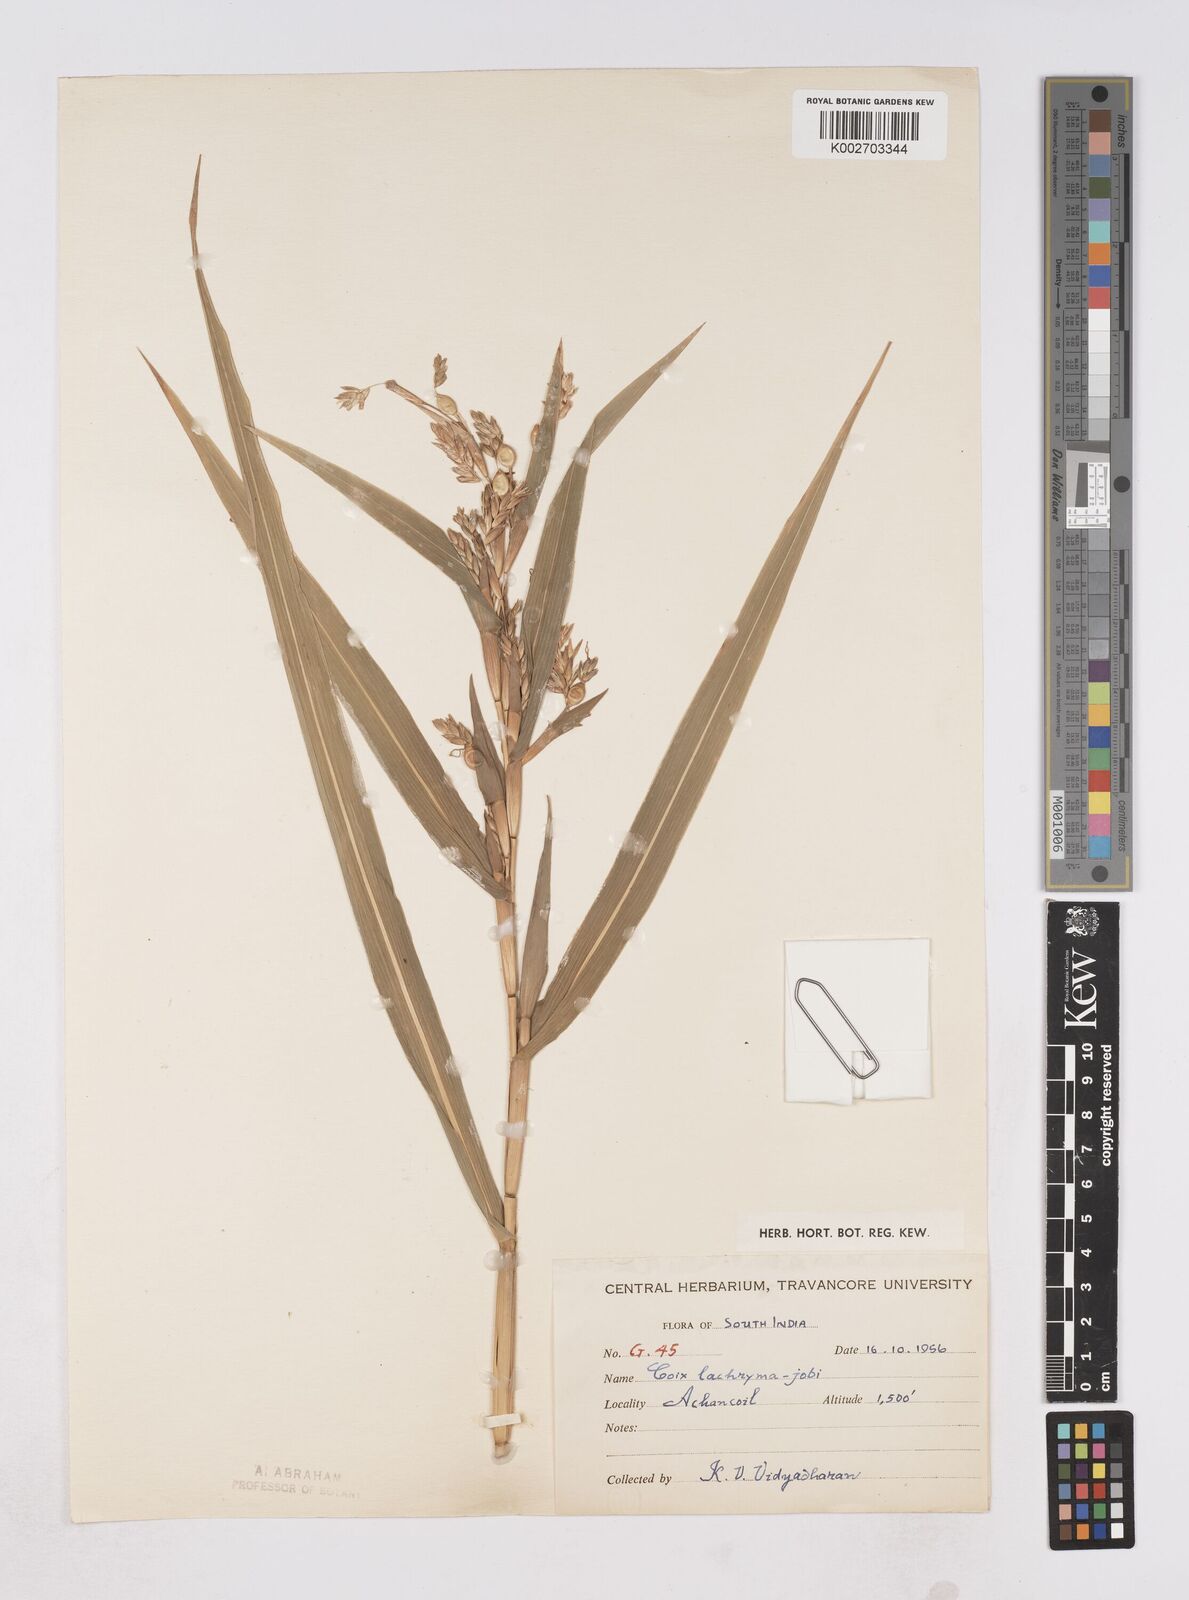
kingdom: Plantae
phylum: Tracheophyta
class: Liliopsida
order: Poales
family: Poaceae
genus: Coix
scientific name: Coix lacryma-jobi
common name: Job's tears
